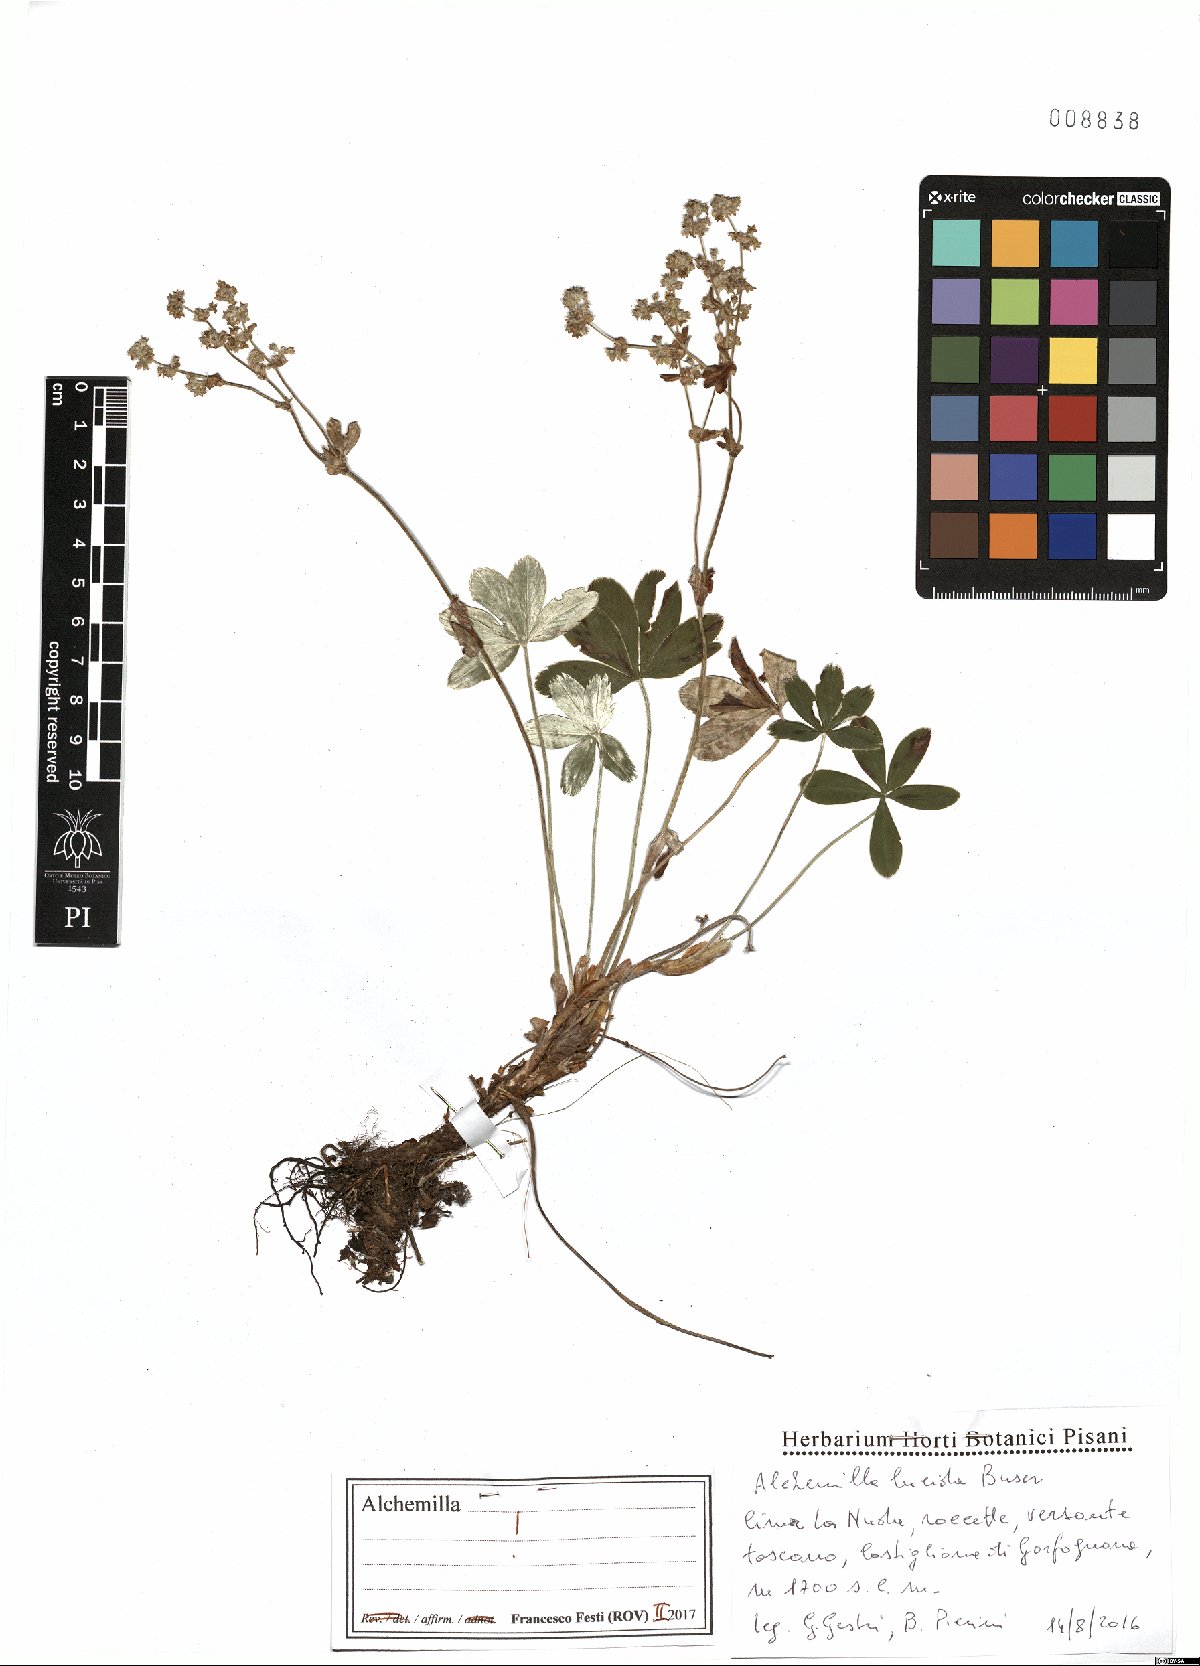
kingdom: Plantae
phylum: Tracheophyta
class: Magnoliopsida
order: Rosales
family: Rosaceae
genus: Alchemilla
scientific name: Alchemilla lucida
